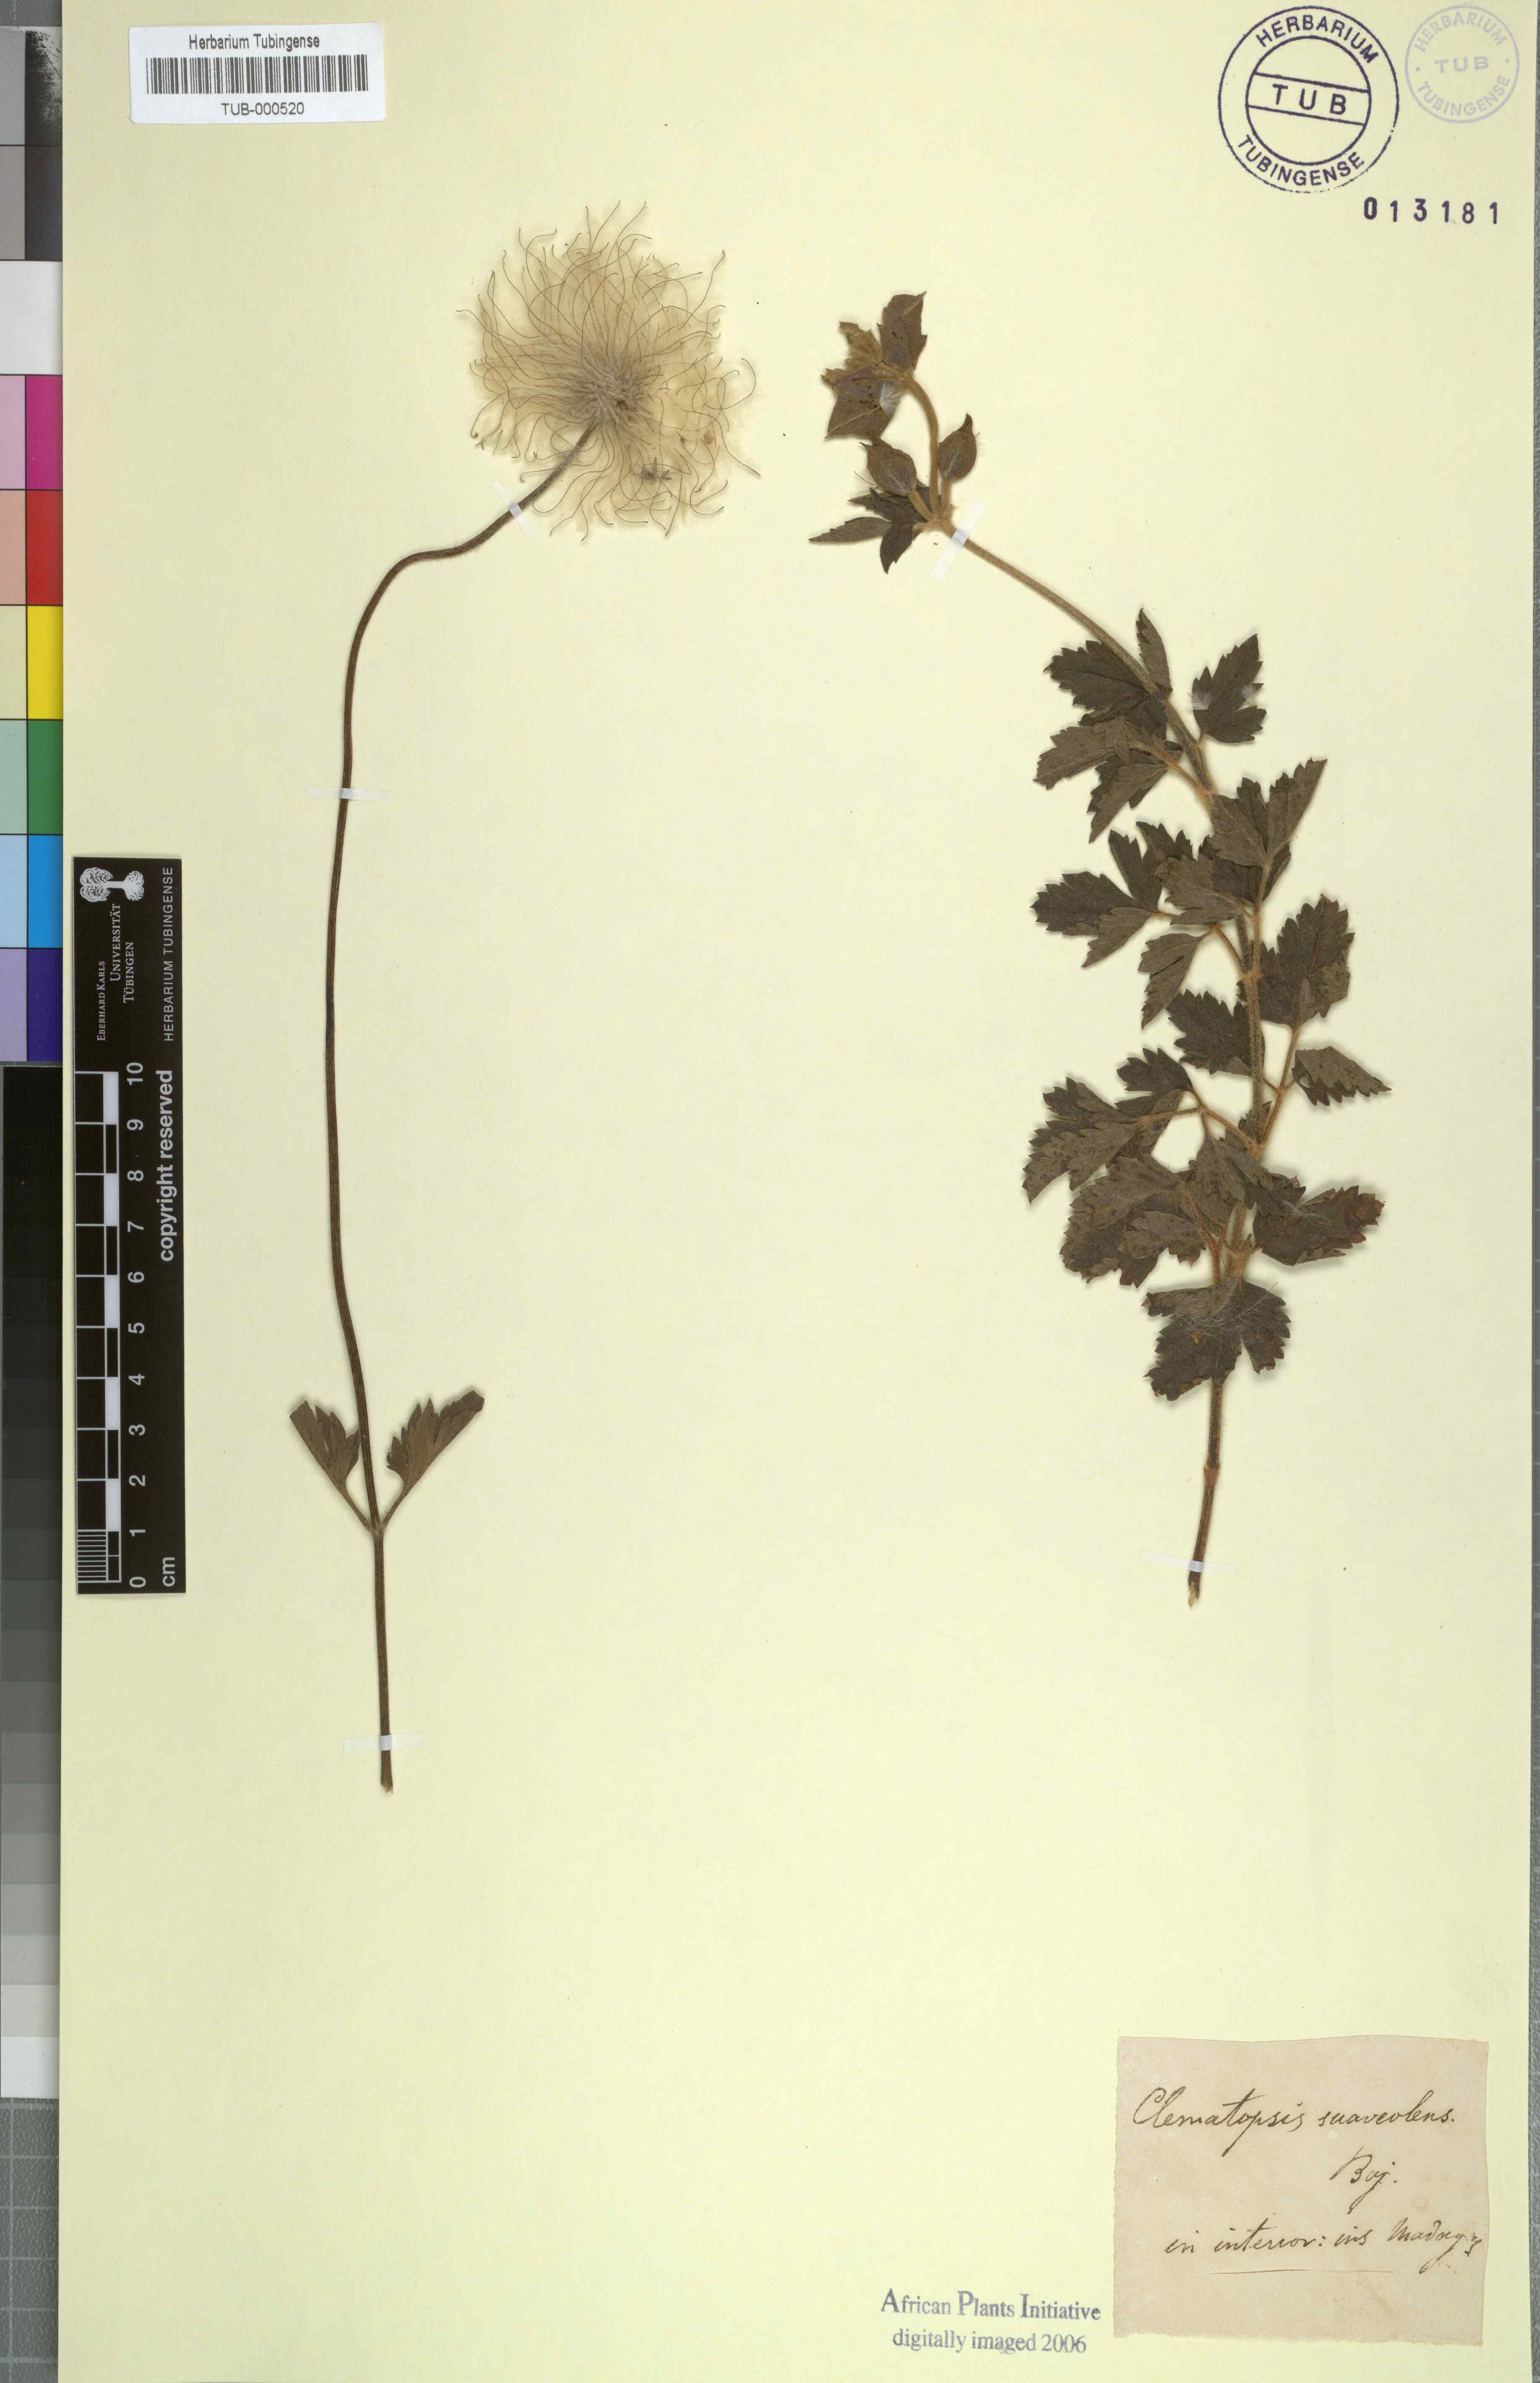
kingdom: Plantae
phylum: Tracheophyta
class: Magnoliopsida
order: Ranunculales
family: Ranunculaceae
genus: Clematis
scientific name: Clematis bojeri
